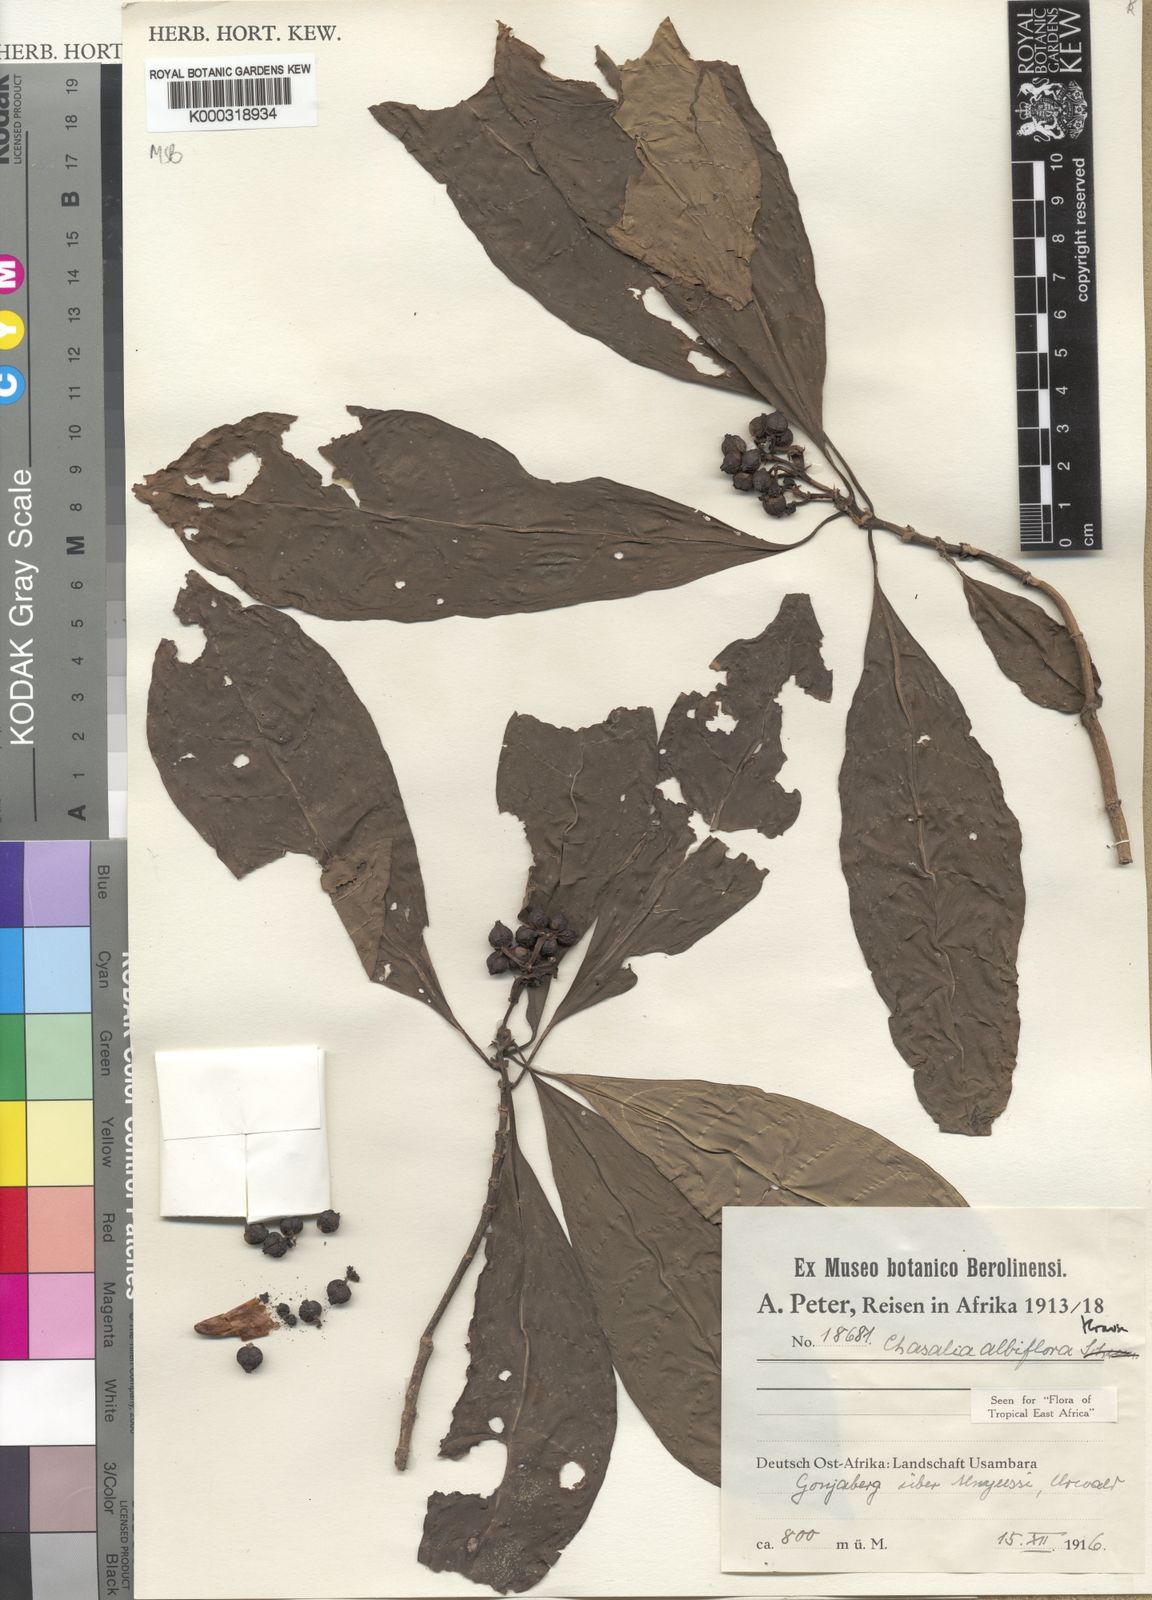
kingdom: Plantae
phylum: Tracheophyta
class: Magnoliopsida
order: Gentianales
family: Rubiaceae
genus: Chassalia
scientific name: Chassalia albiflora
